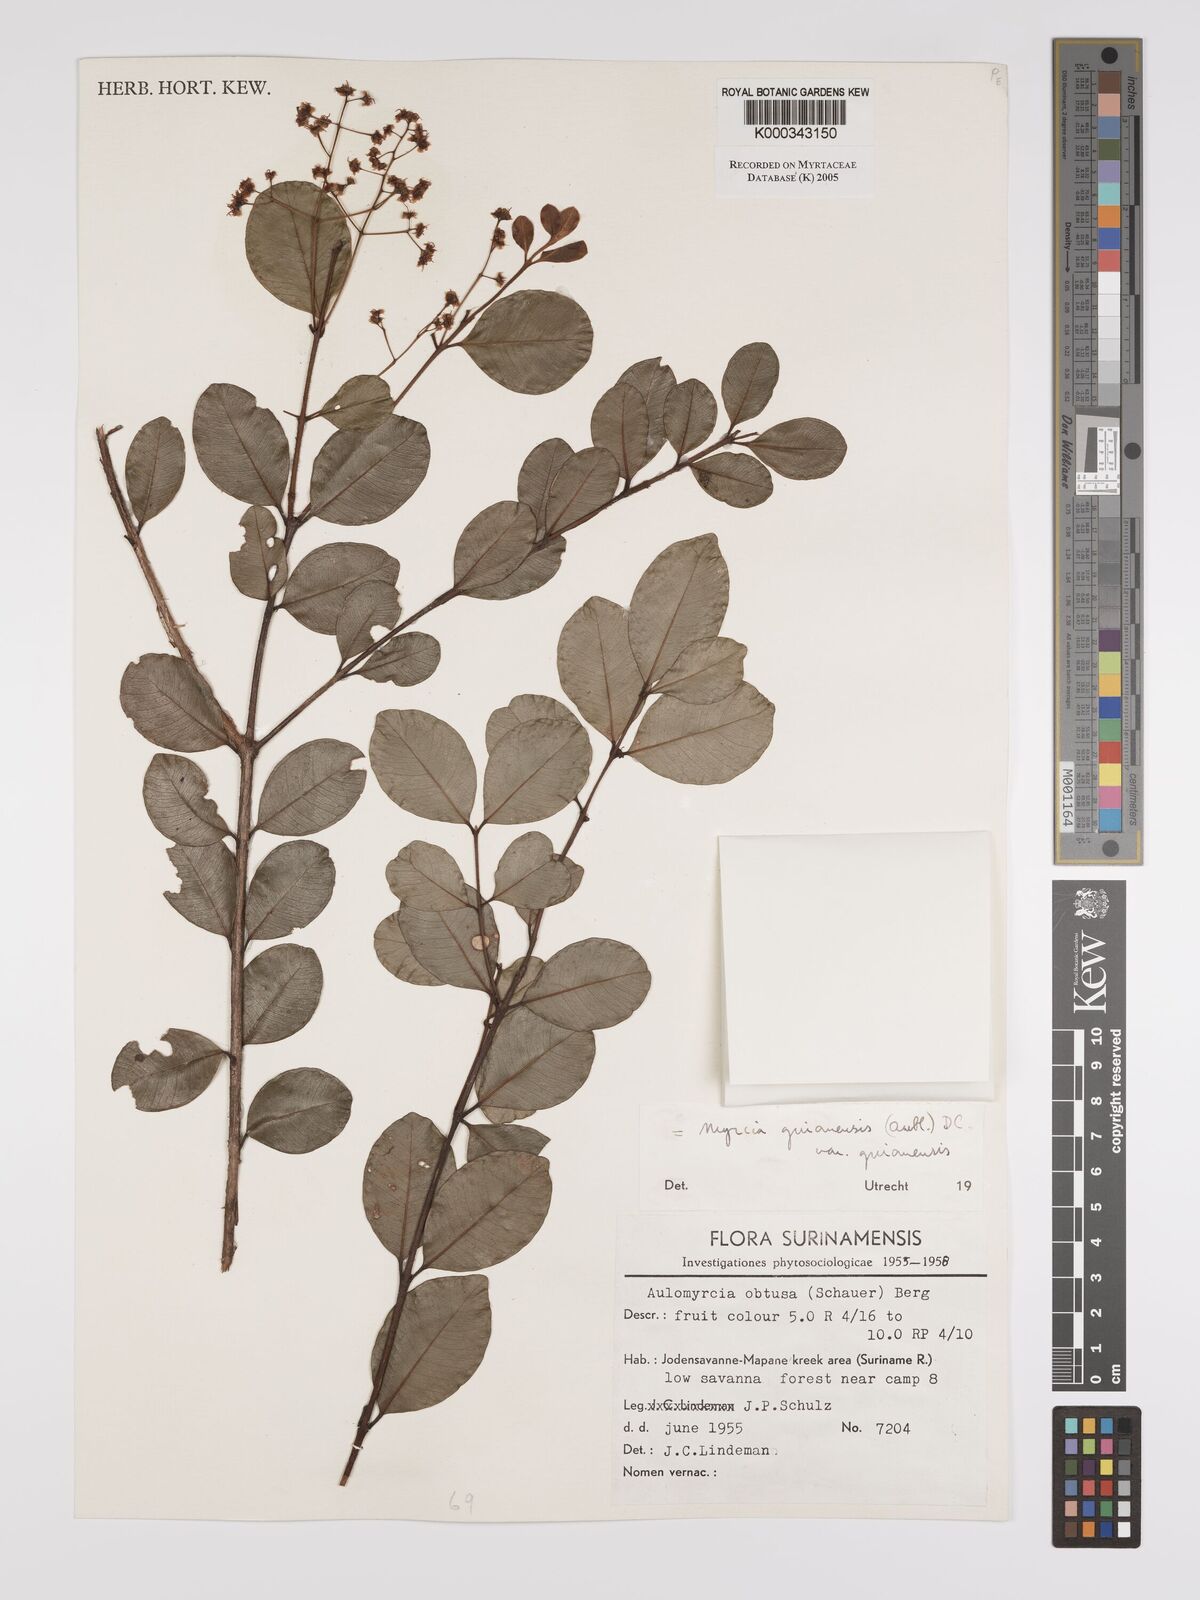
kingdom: Plantae
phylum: Tracheophyta
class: Magnoliopsida
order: Myrtales
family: Myrtaceae
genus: Myrcia
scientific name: Myrcia guianensis
